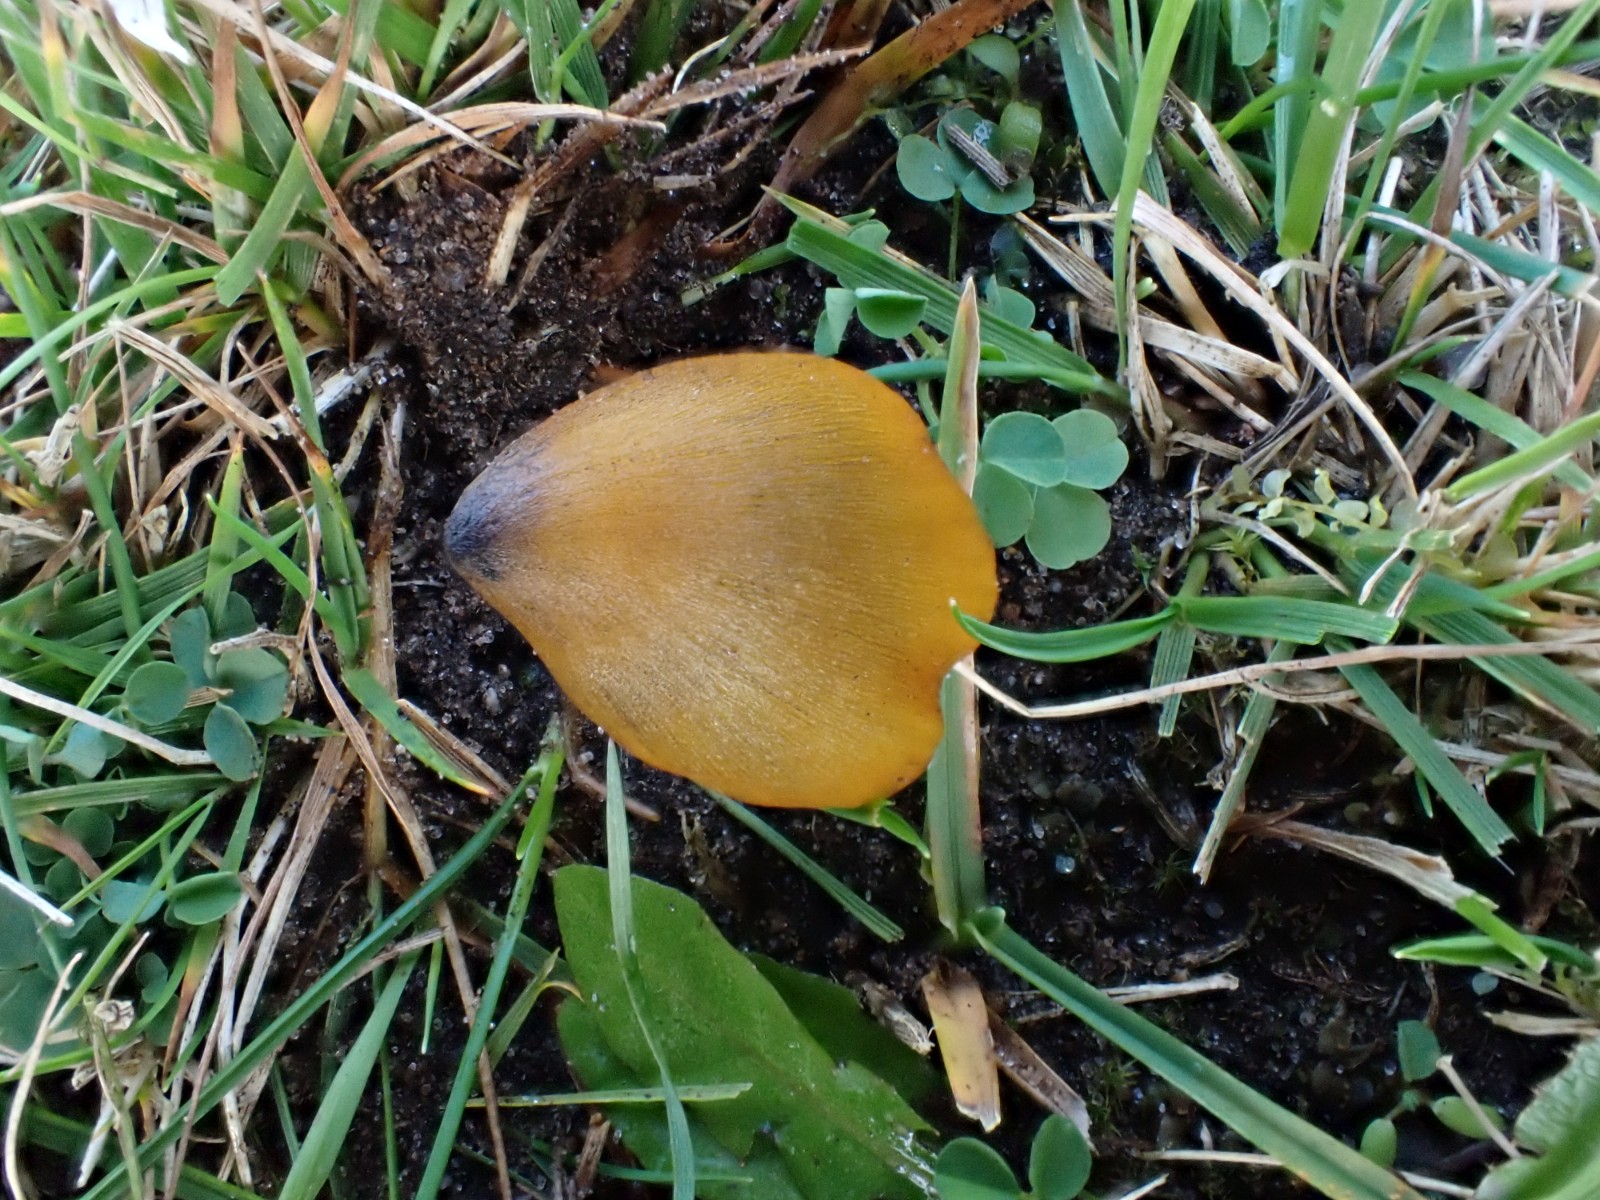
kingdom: Fungi
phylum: Basidiomycota
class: Agaricomycetes
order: Agaricales
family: Hygrophoraceae
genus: Hygrocybe
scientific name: Hygrocybe conica
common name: kegle-vokshat
